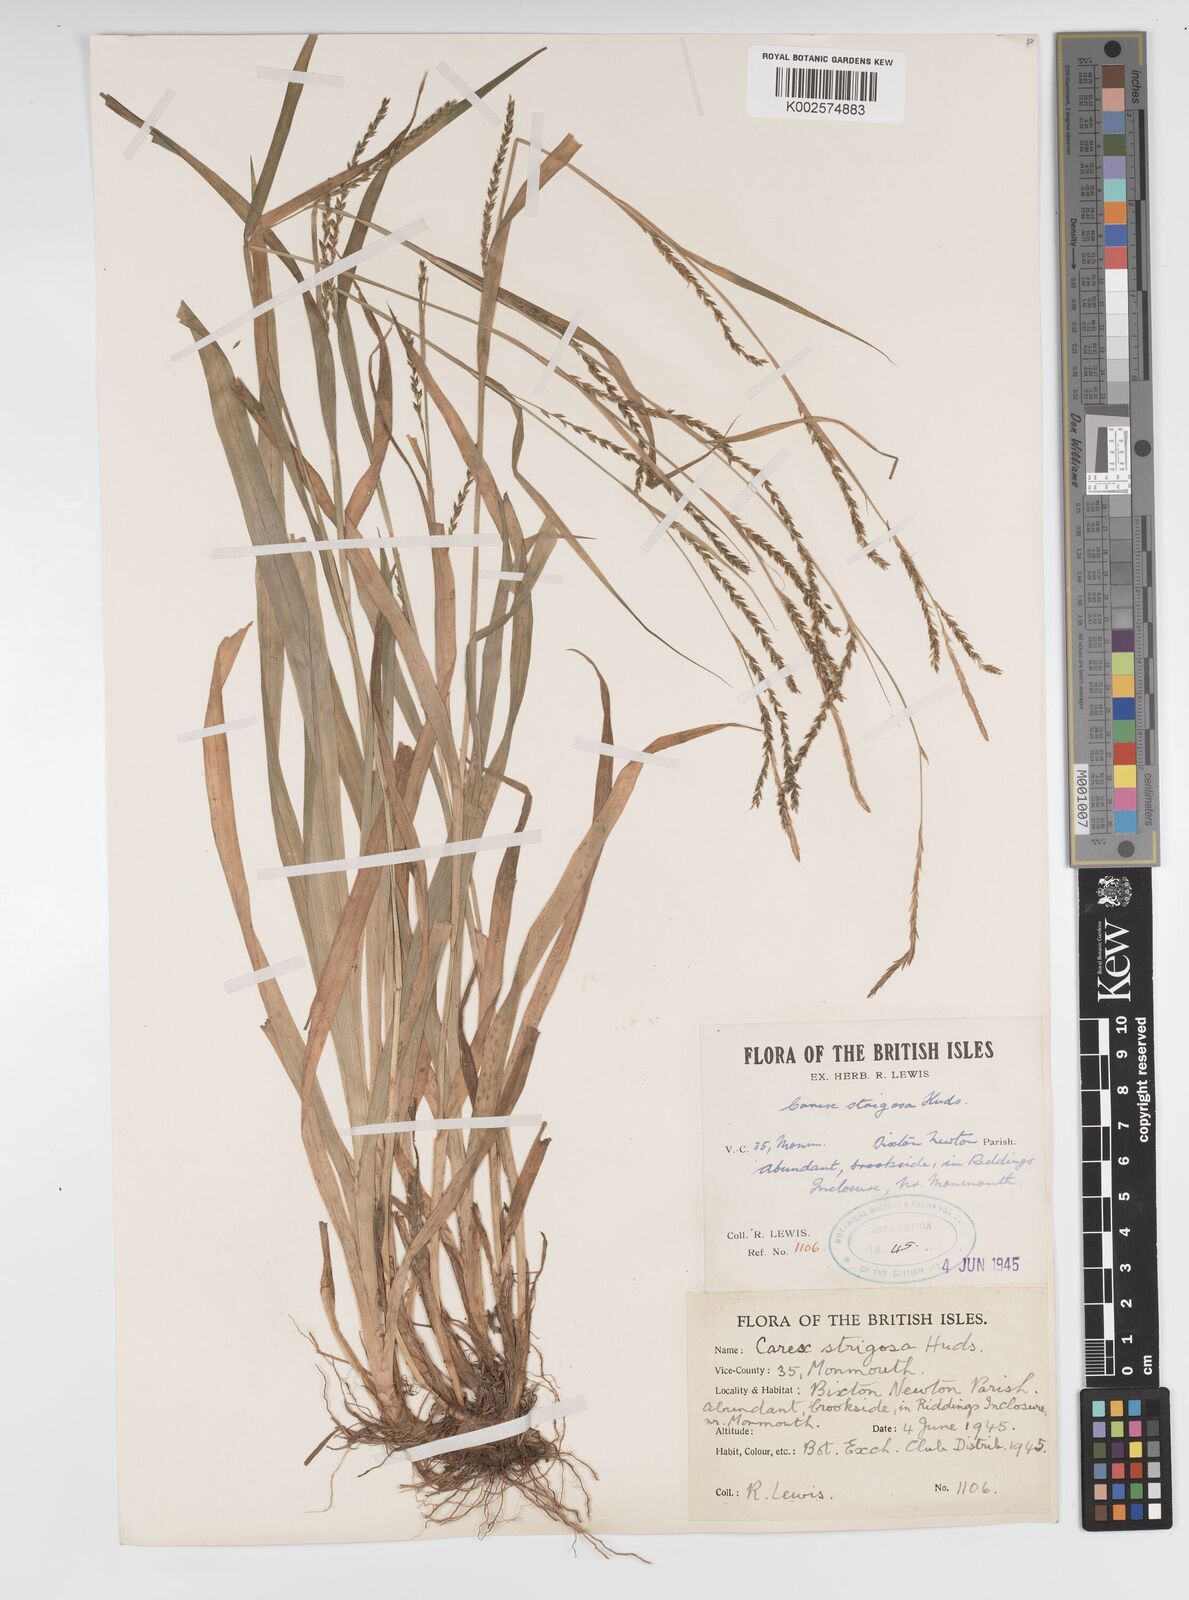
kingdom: Plantae
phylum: Tracheophyta
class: Liliopsida
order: Poales
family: Cyperaceae
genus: Carex
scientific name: Carex strigosa
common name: Thin-spiked wood-sedge
